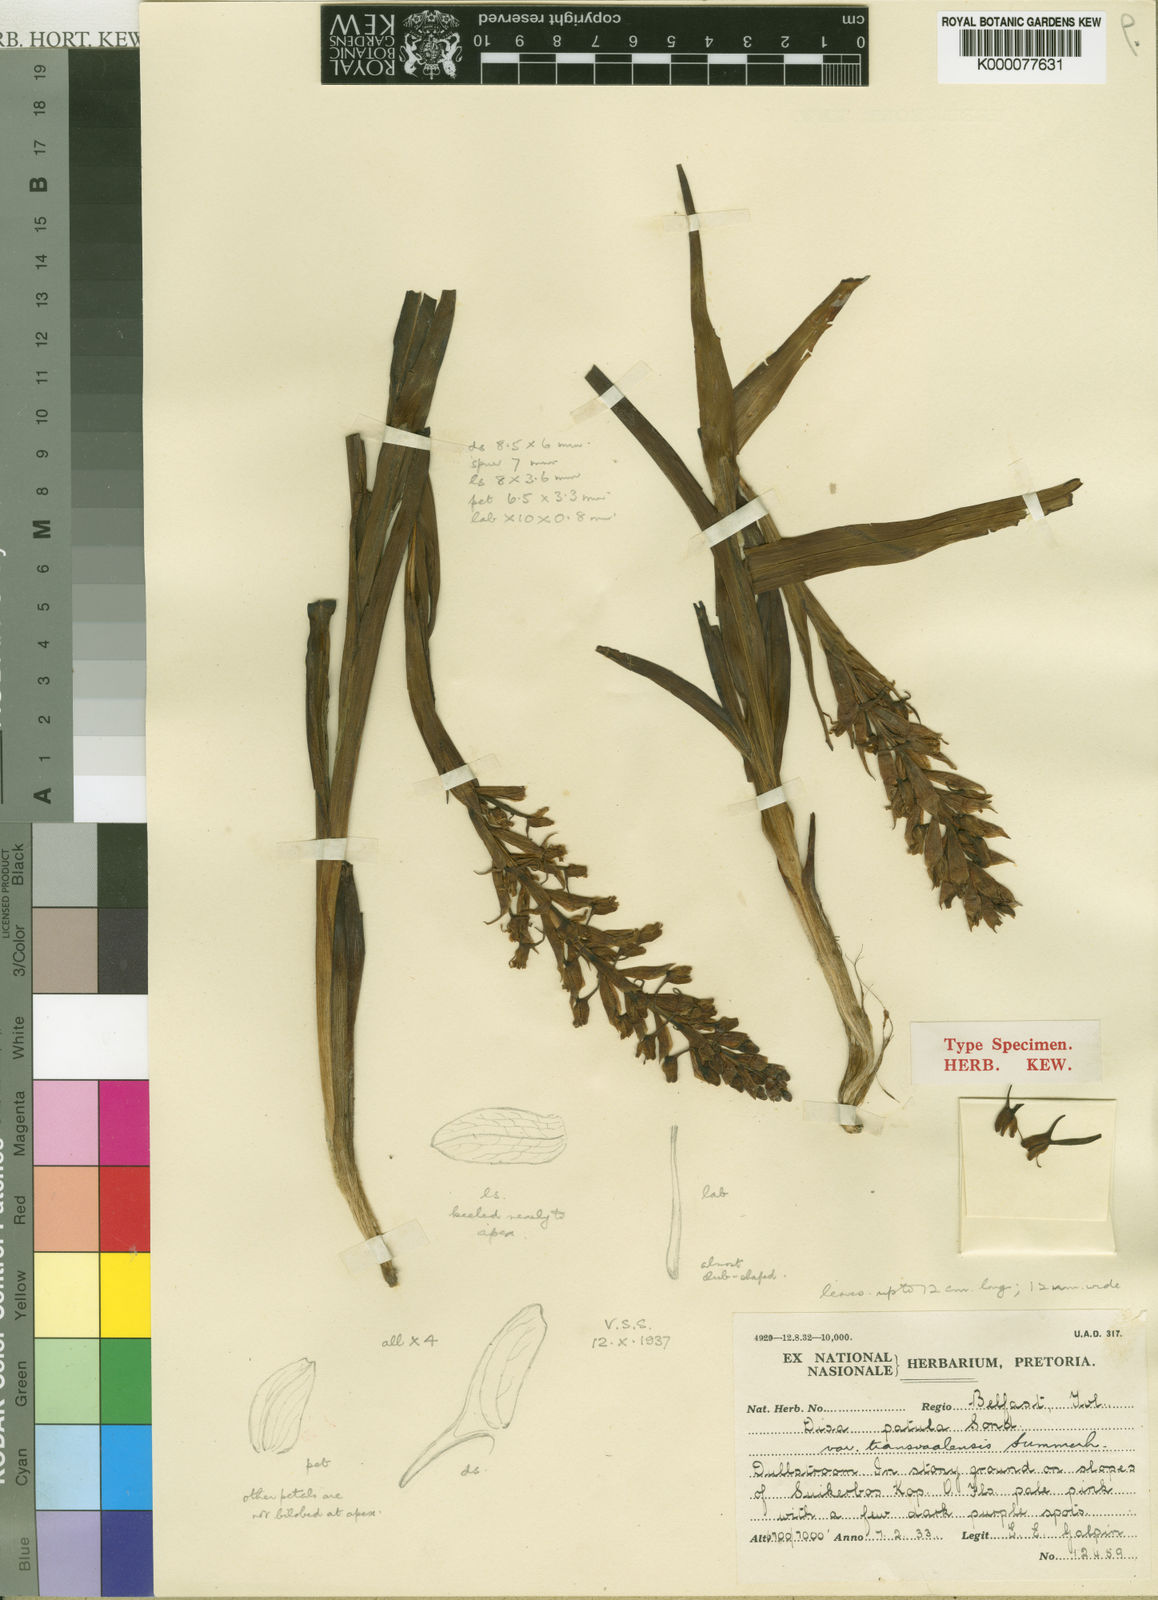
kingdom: Plantae
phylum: Tracheophyta
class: Liliopsida
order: Asparagales
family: Orchidaceae
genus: Disa
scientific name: Disa patula
